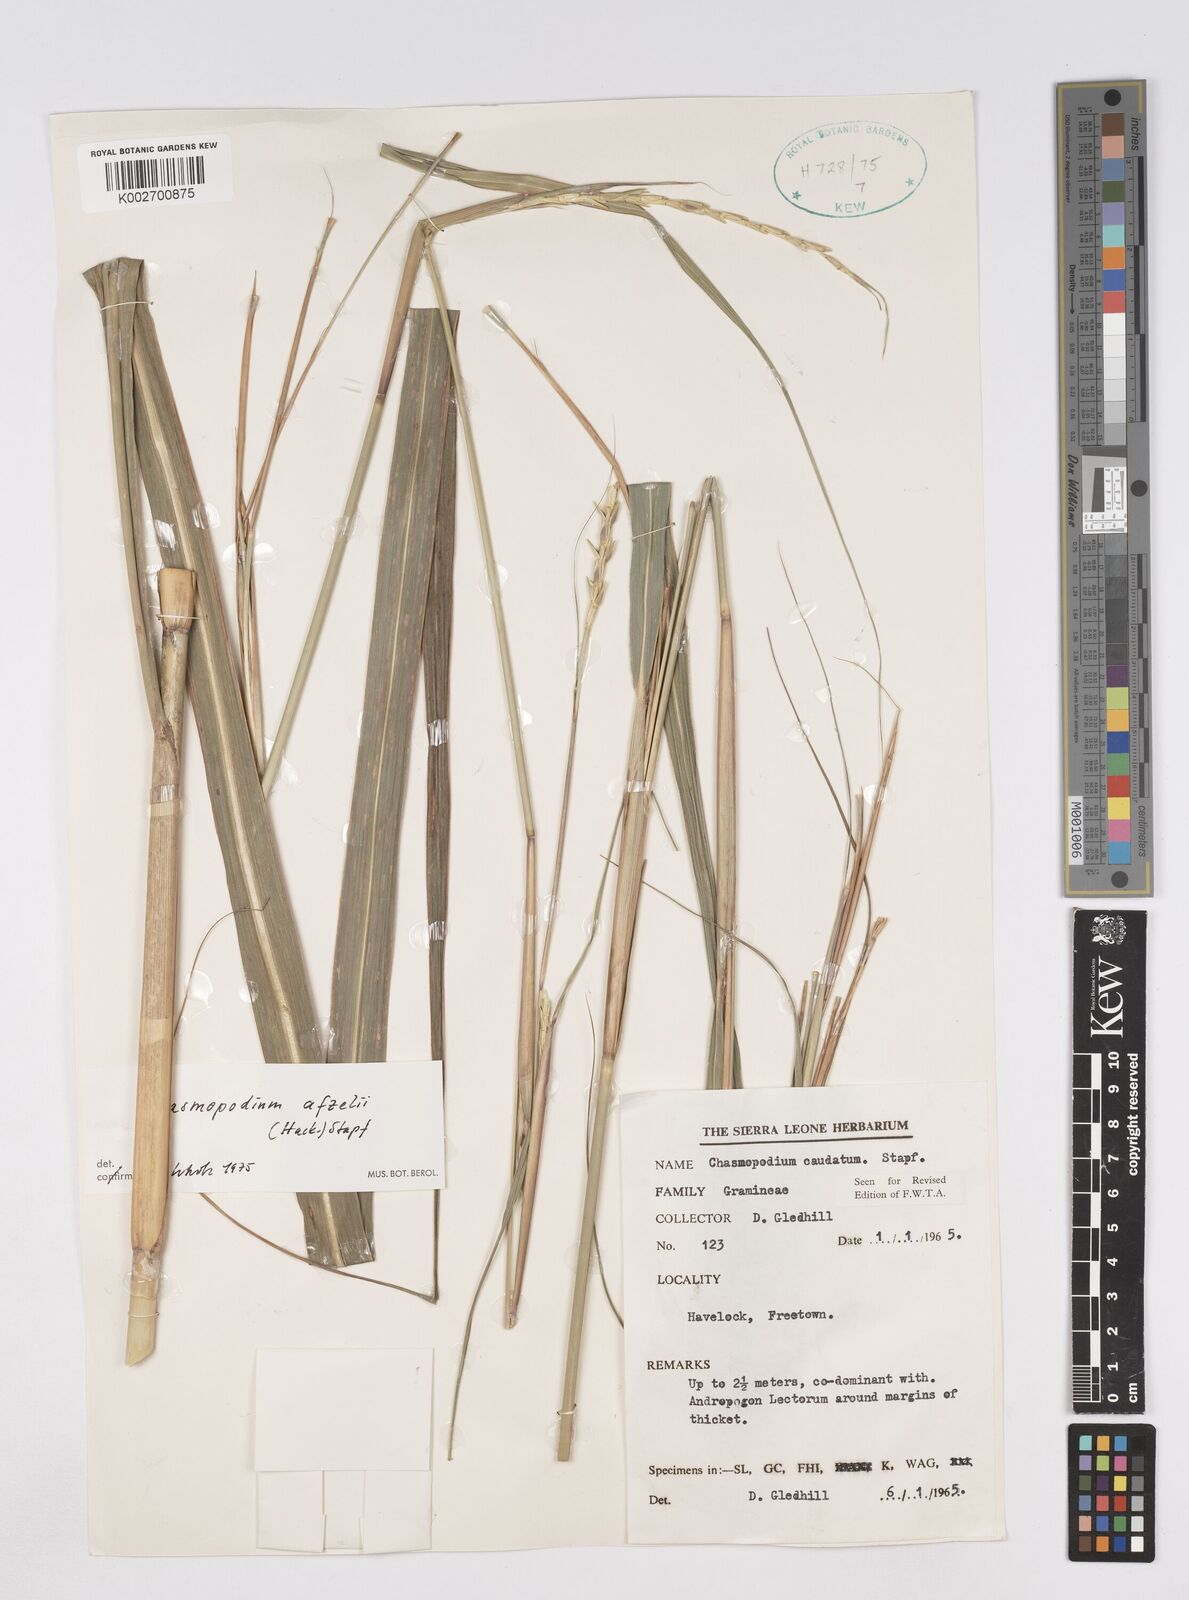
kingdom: Plantae
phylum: Tracheophyta
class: Liliopsida
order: Poales
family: Poaceae
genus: Chasmopodium
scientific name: Chasmopodium caudatum
